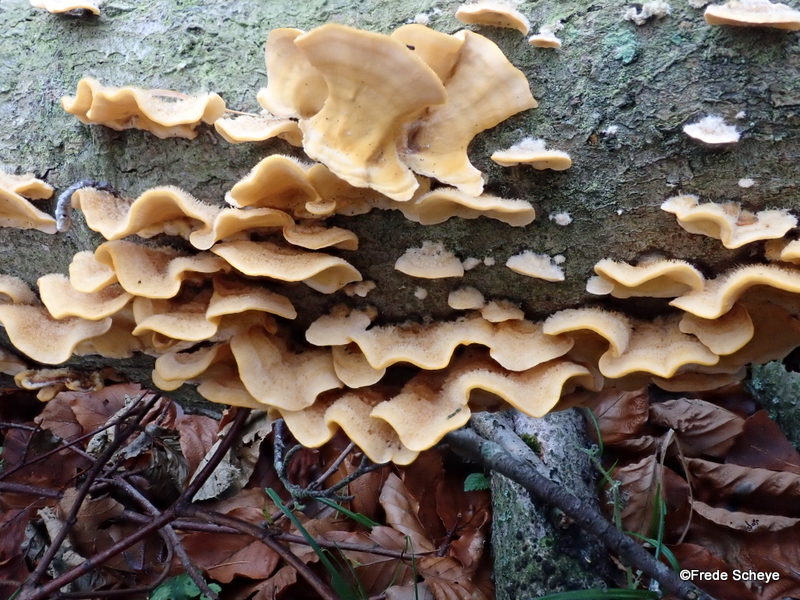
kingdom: Fungi
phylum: Basidiomycota
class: Agaricomycetes
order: Russulales
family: Stereaceae
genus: Stereum
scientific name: Stereum hirsutum
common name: håret lædersvamp
